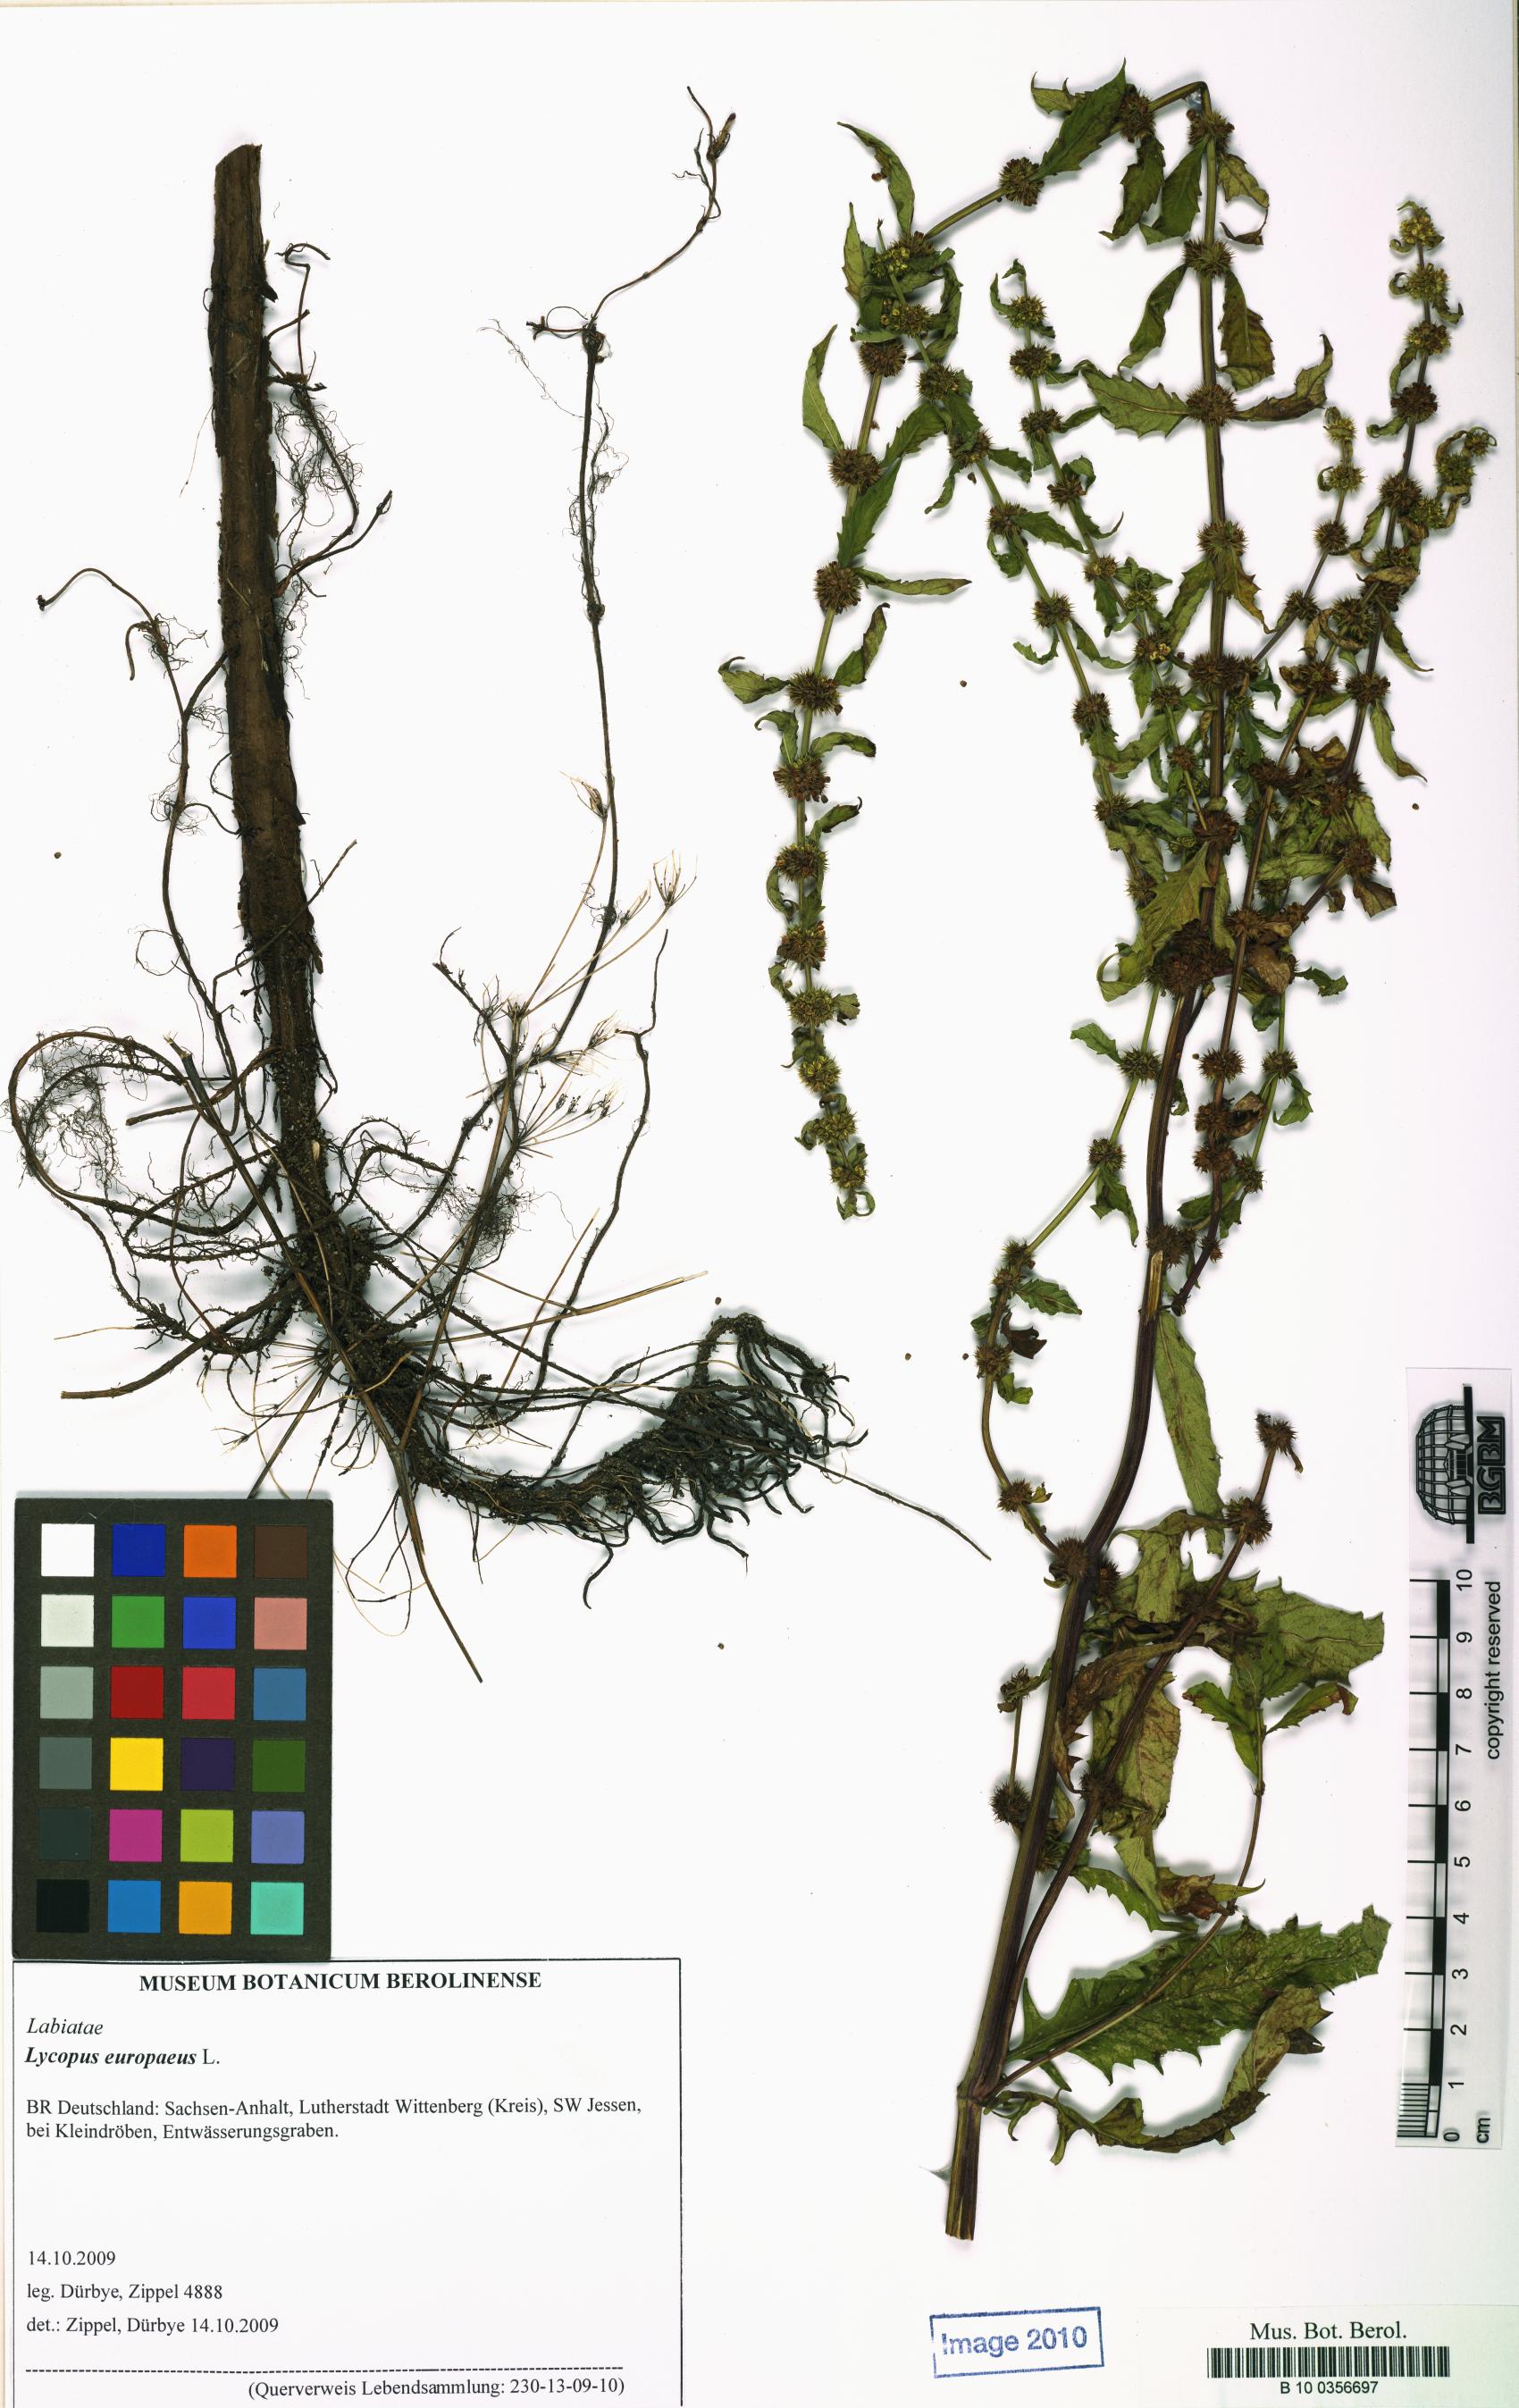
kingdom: Plantae
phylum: Tracheophyta
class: Magnoliopsida
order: Lamiales
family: Lamiaceae
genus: Lycopus
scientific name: Lycopus europaeus
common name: European bugleweed
